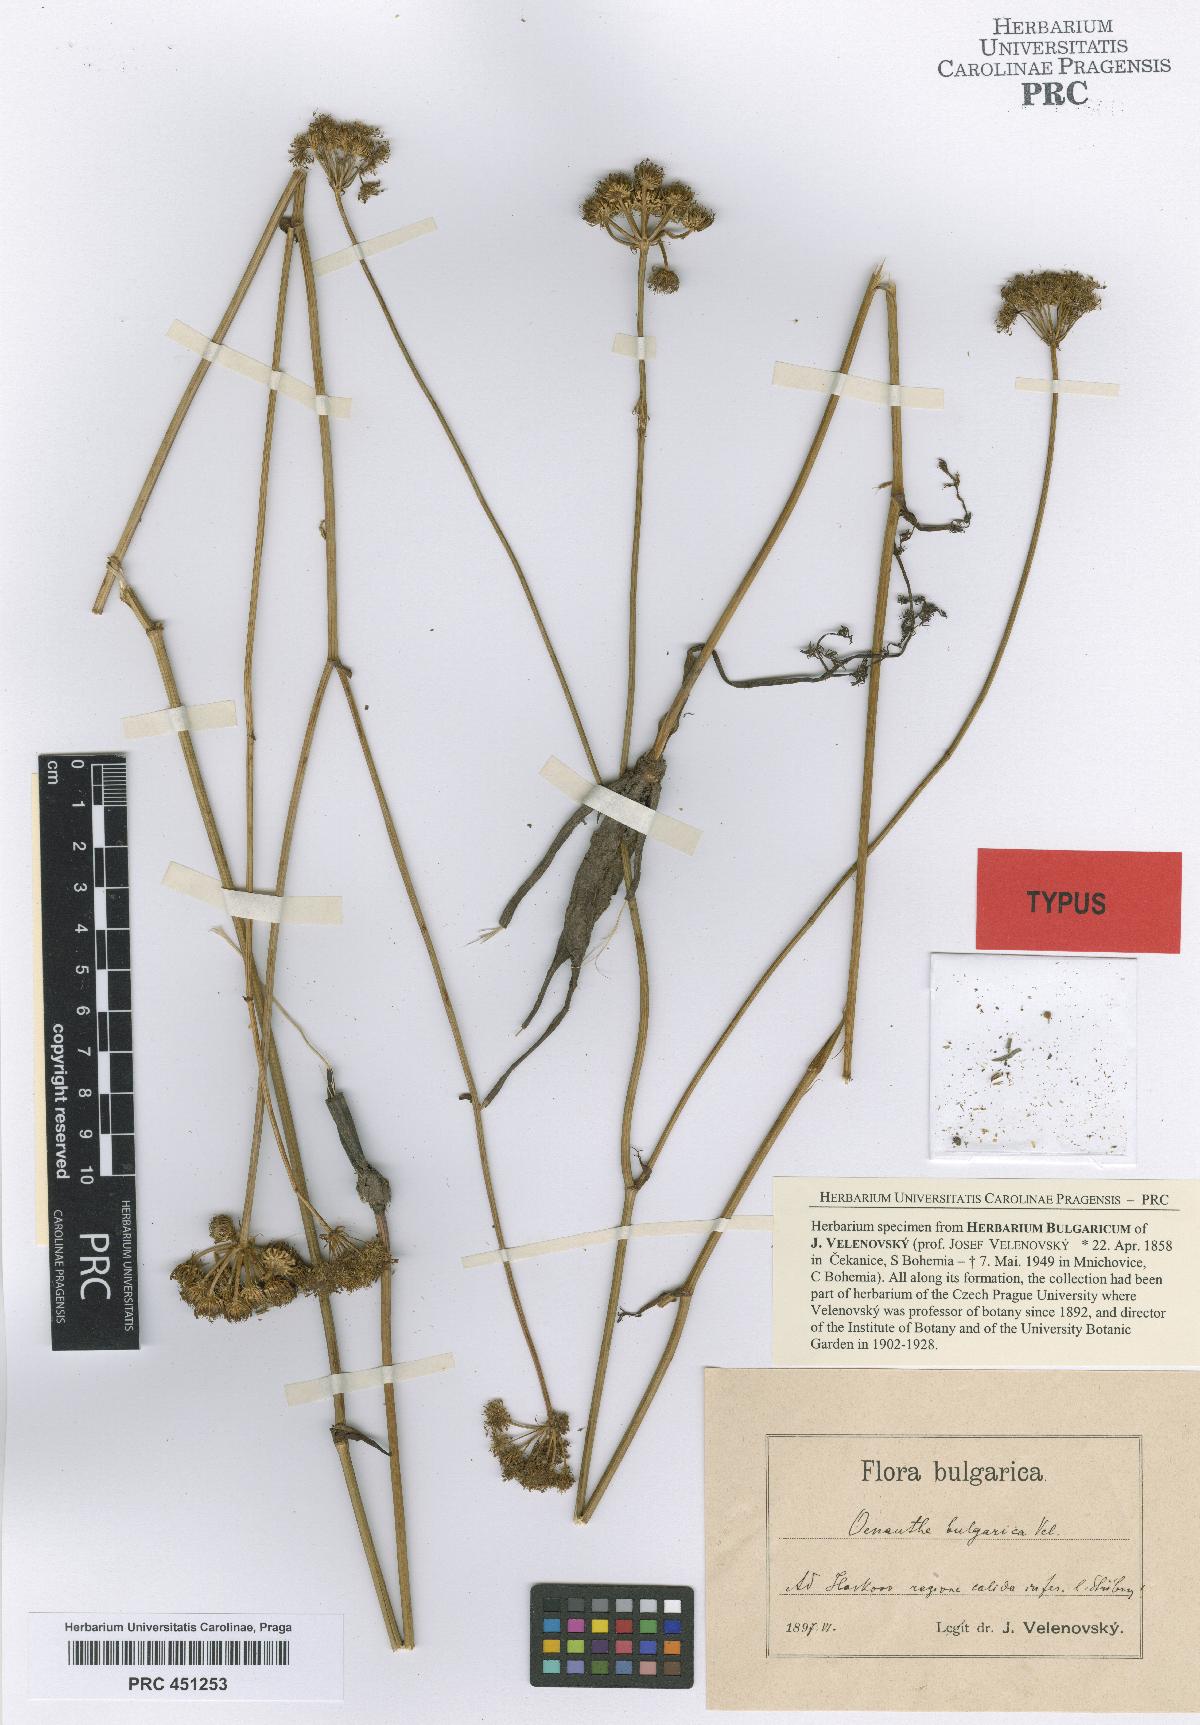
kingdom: Plantae
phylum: Tracheophyta
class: Magnoliopsida
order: Apiales
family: Apiaceae
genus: Oenanthe
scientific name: Oenanthe millefolia
